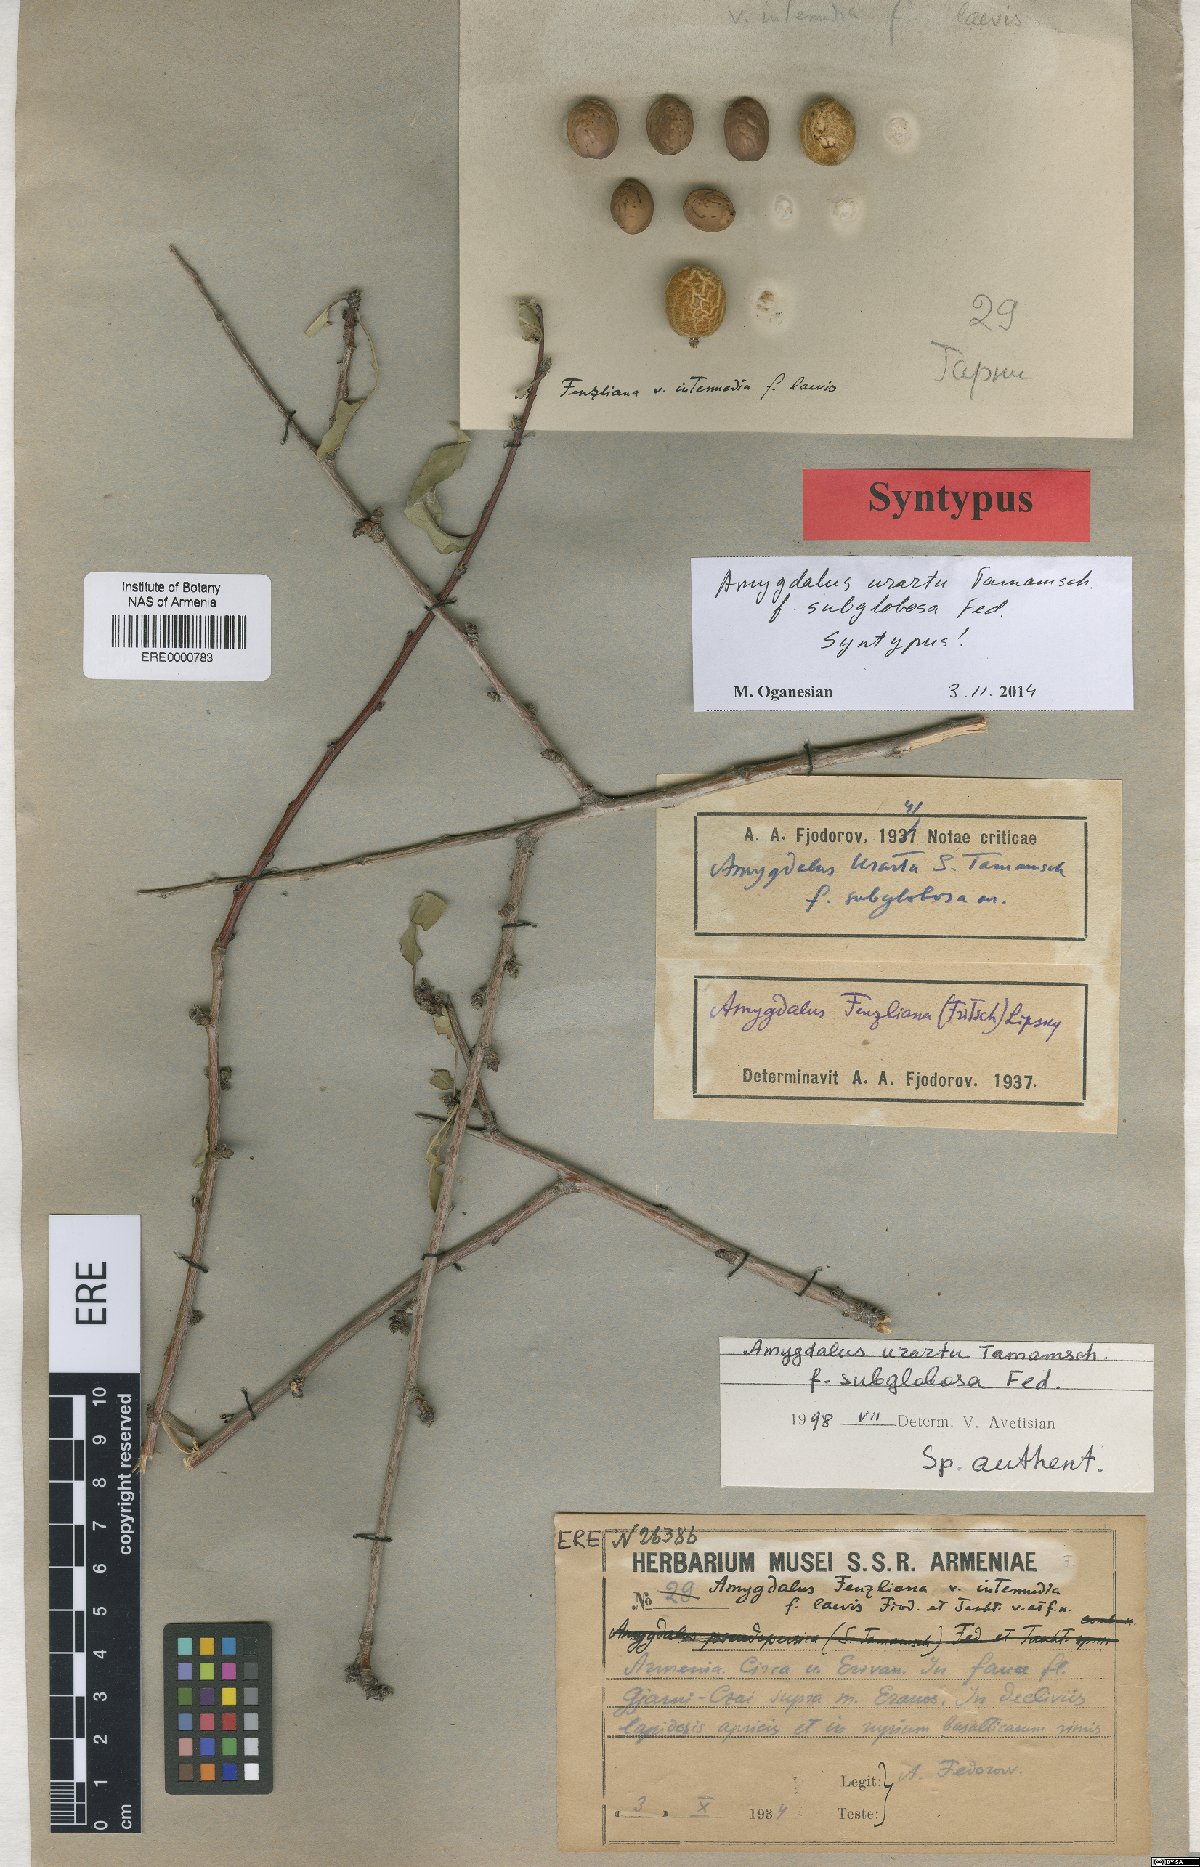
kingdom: Plantae
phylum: Tracheophyta
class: Magnoliopsida
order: Rosales
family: Rosaceae
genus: Prunus
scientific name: Prunus urartu
